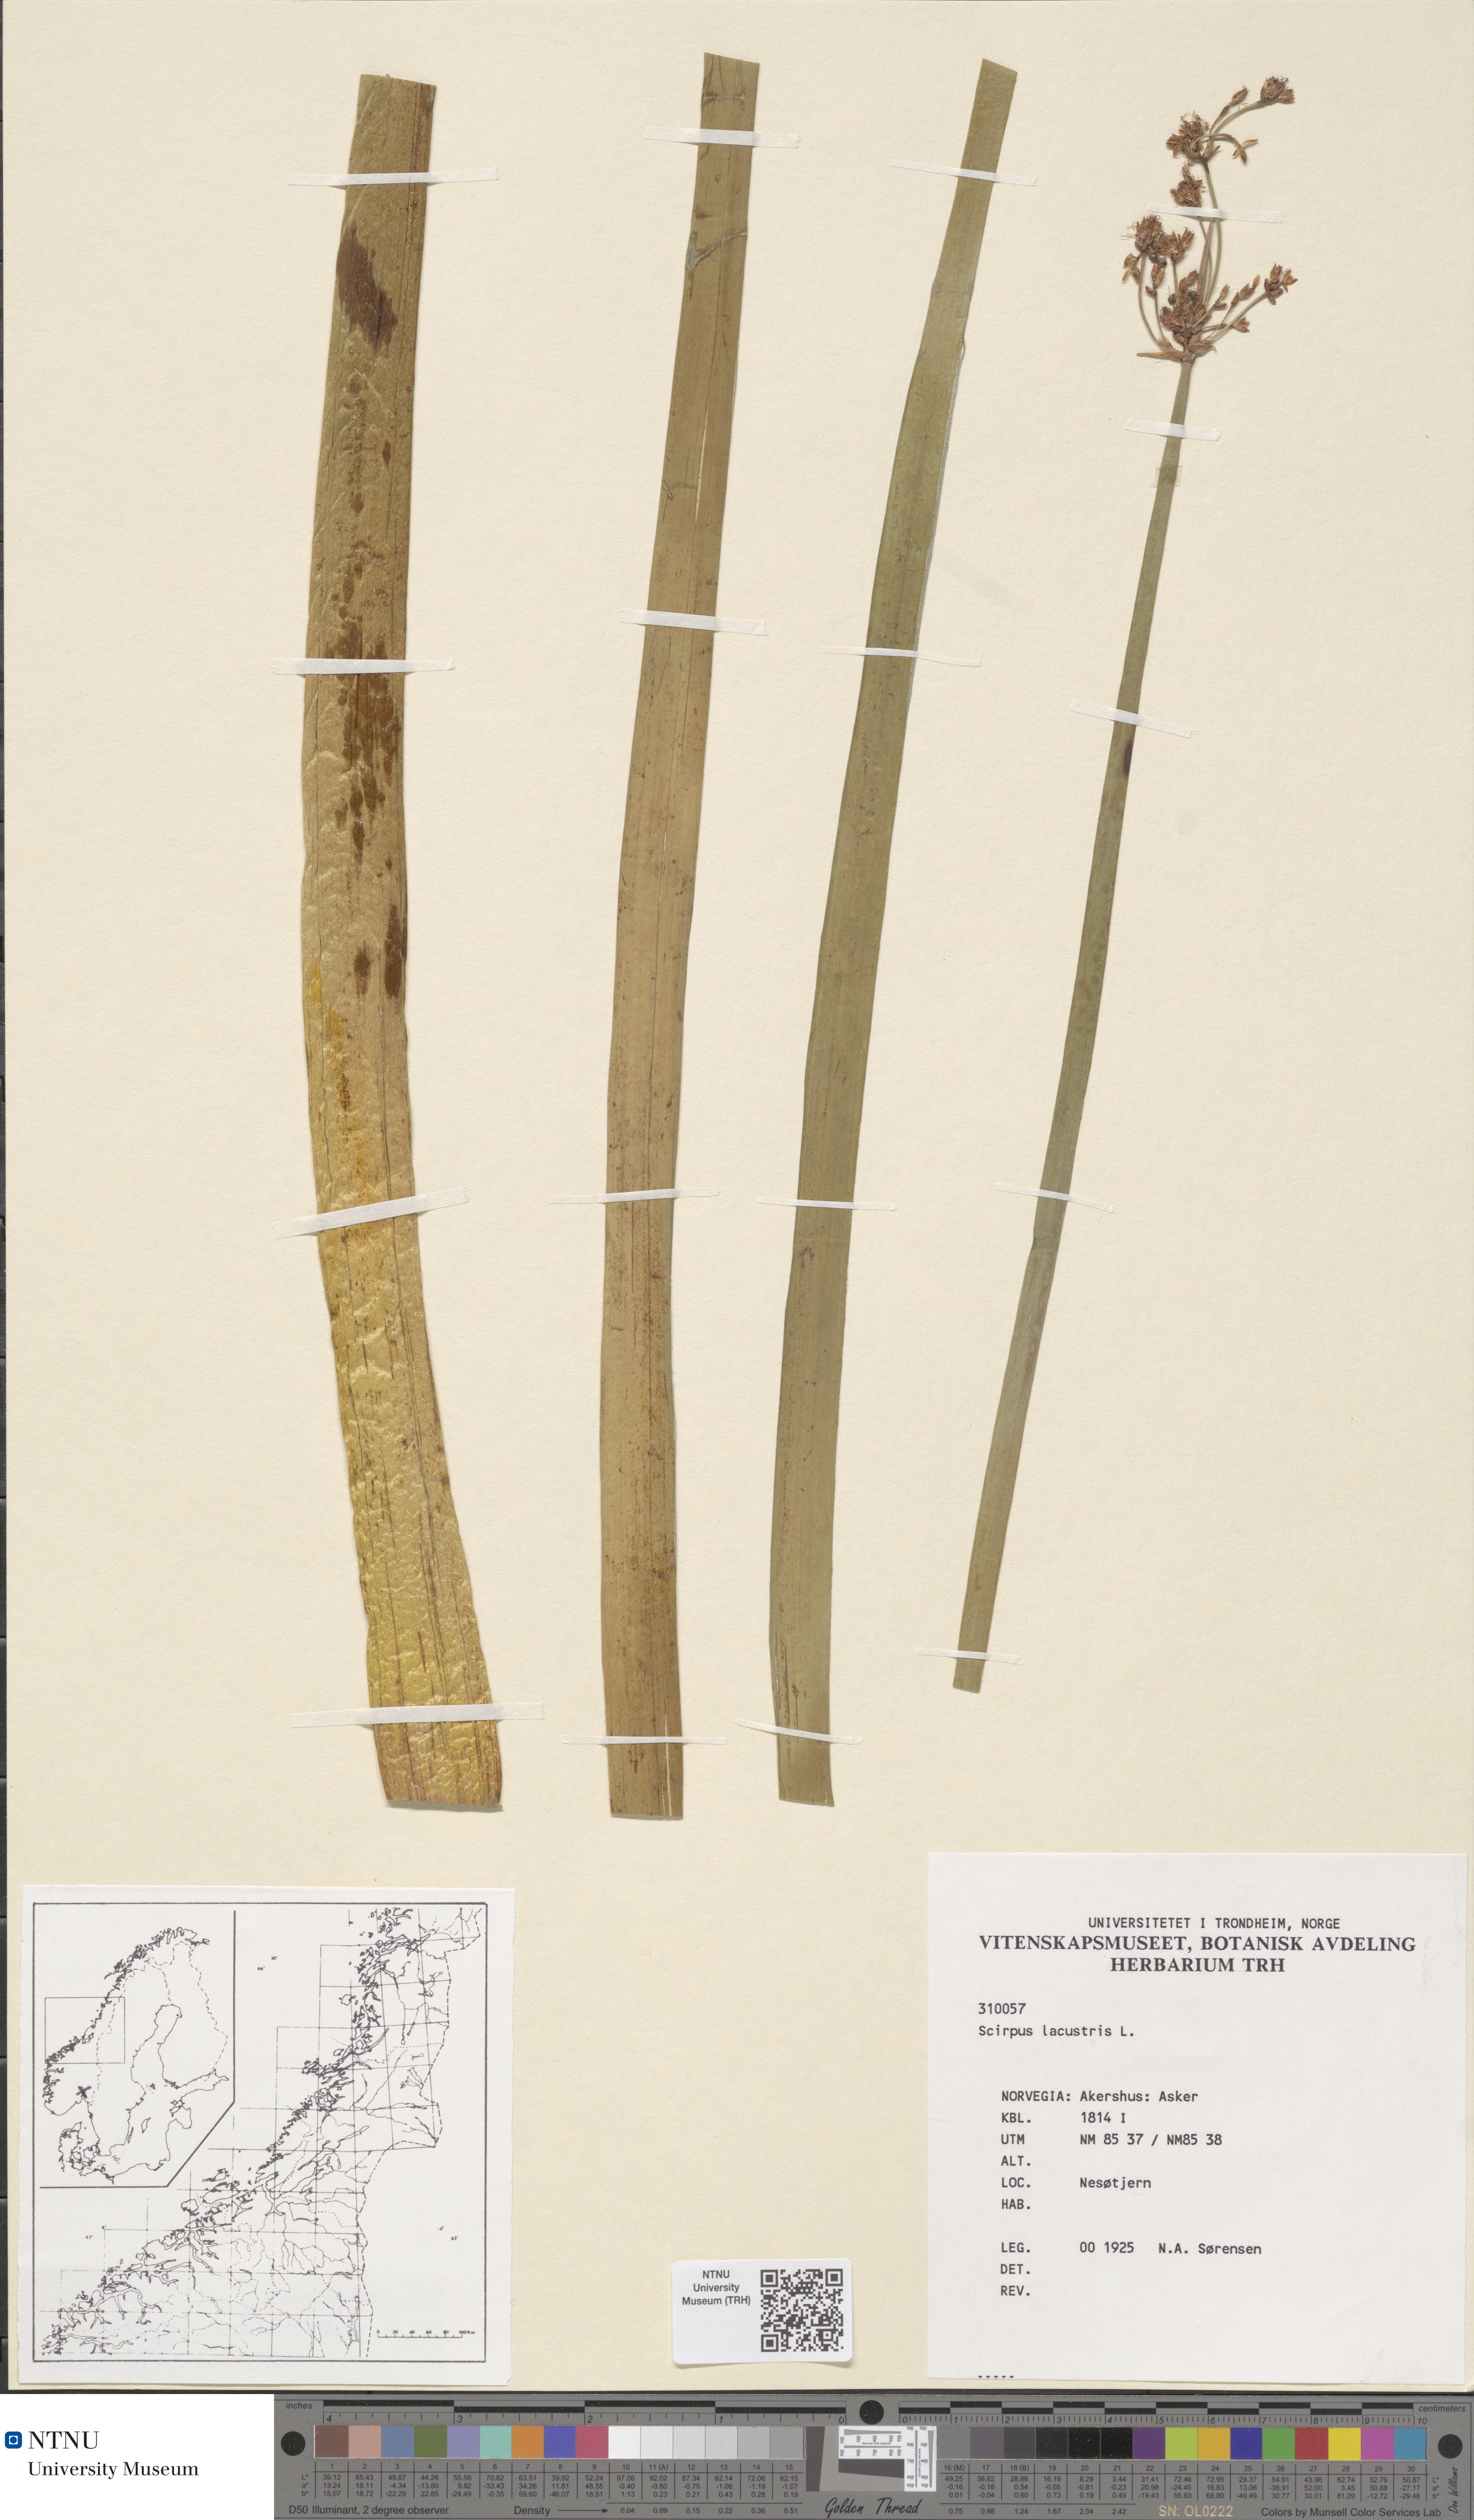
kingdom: Plantae
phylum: Tracheophyta
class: Liliopsida
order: Poales
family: Cyperaceae
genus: Schoenoplectus
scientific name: Schoenoplectus lacustris
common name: Common club-rush
